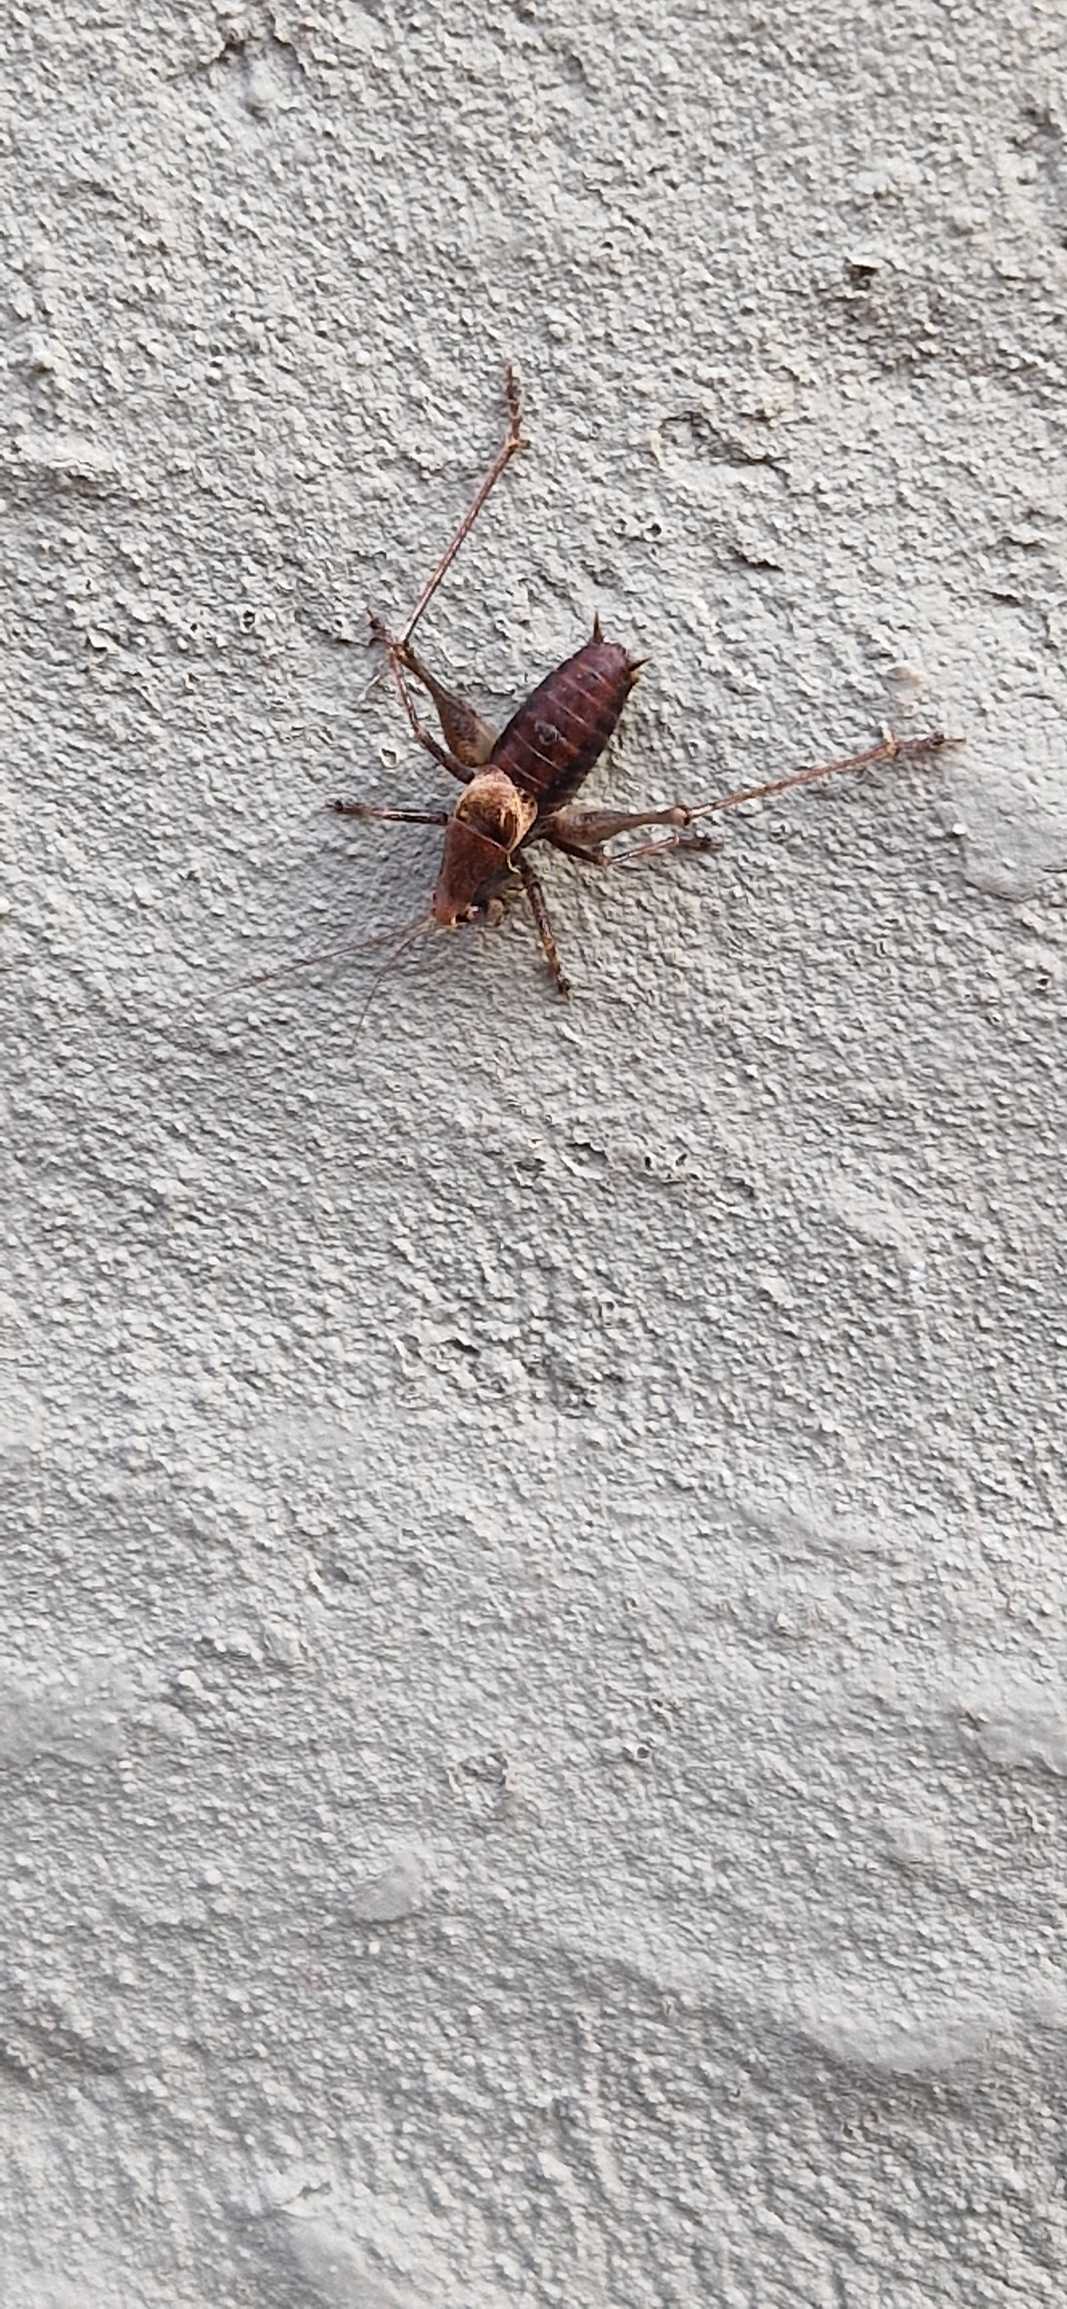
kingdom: Animalia
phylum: Arthropoda
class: Insecta
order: Orthoptera
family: Tettigoniidae
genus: Pholidoptera
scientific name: Pholidoptera griseoaptera
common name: Buskgræshoppe
